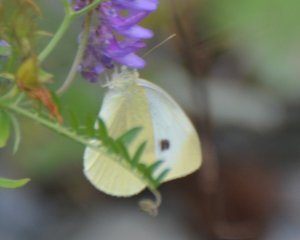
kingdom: Animalia
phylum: Arthropoda
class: Insecta
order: Lepidoptera
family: Pieridae
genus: Pieris
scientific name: Pieris rapae
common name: Cabbage White
